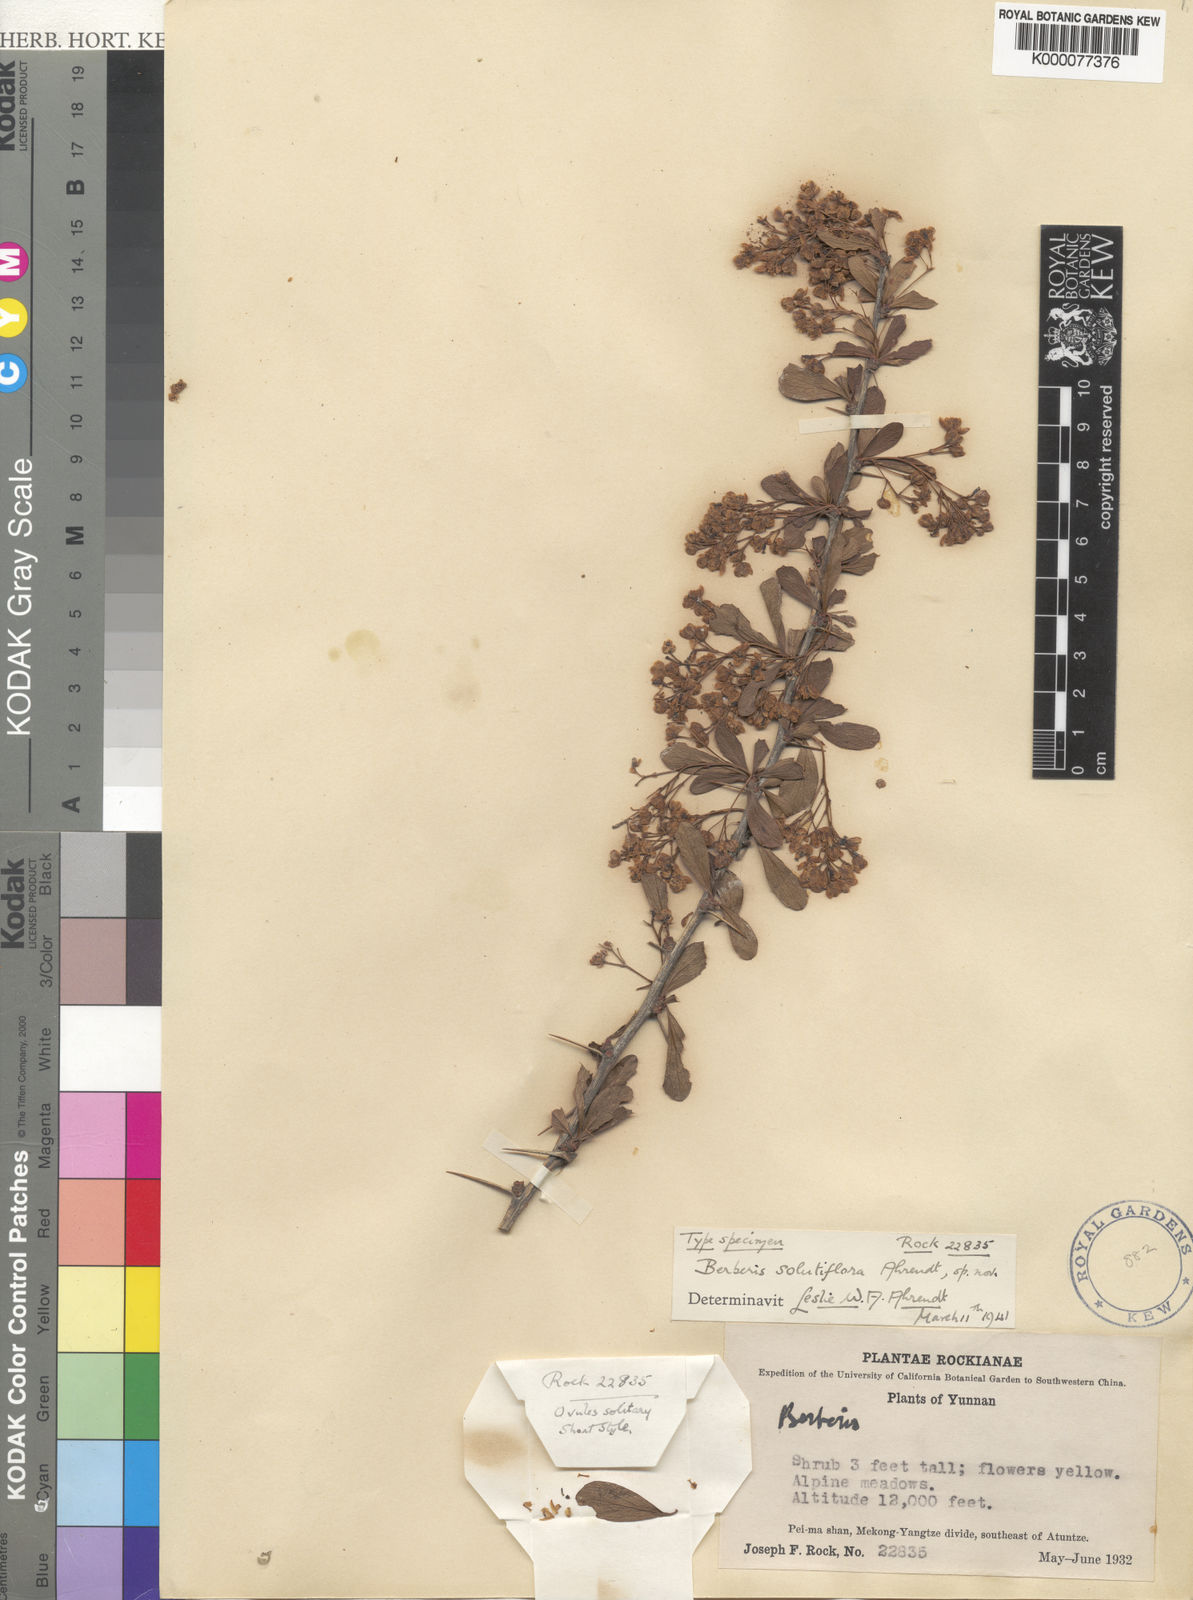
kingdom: Plantae
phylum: Tracheophyta
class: Magnoliopsida
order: Ranunculales
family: Berberidaceae
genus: Berberis
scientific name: Berberis concolor
